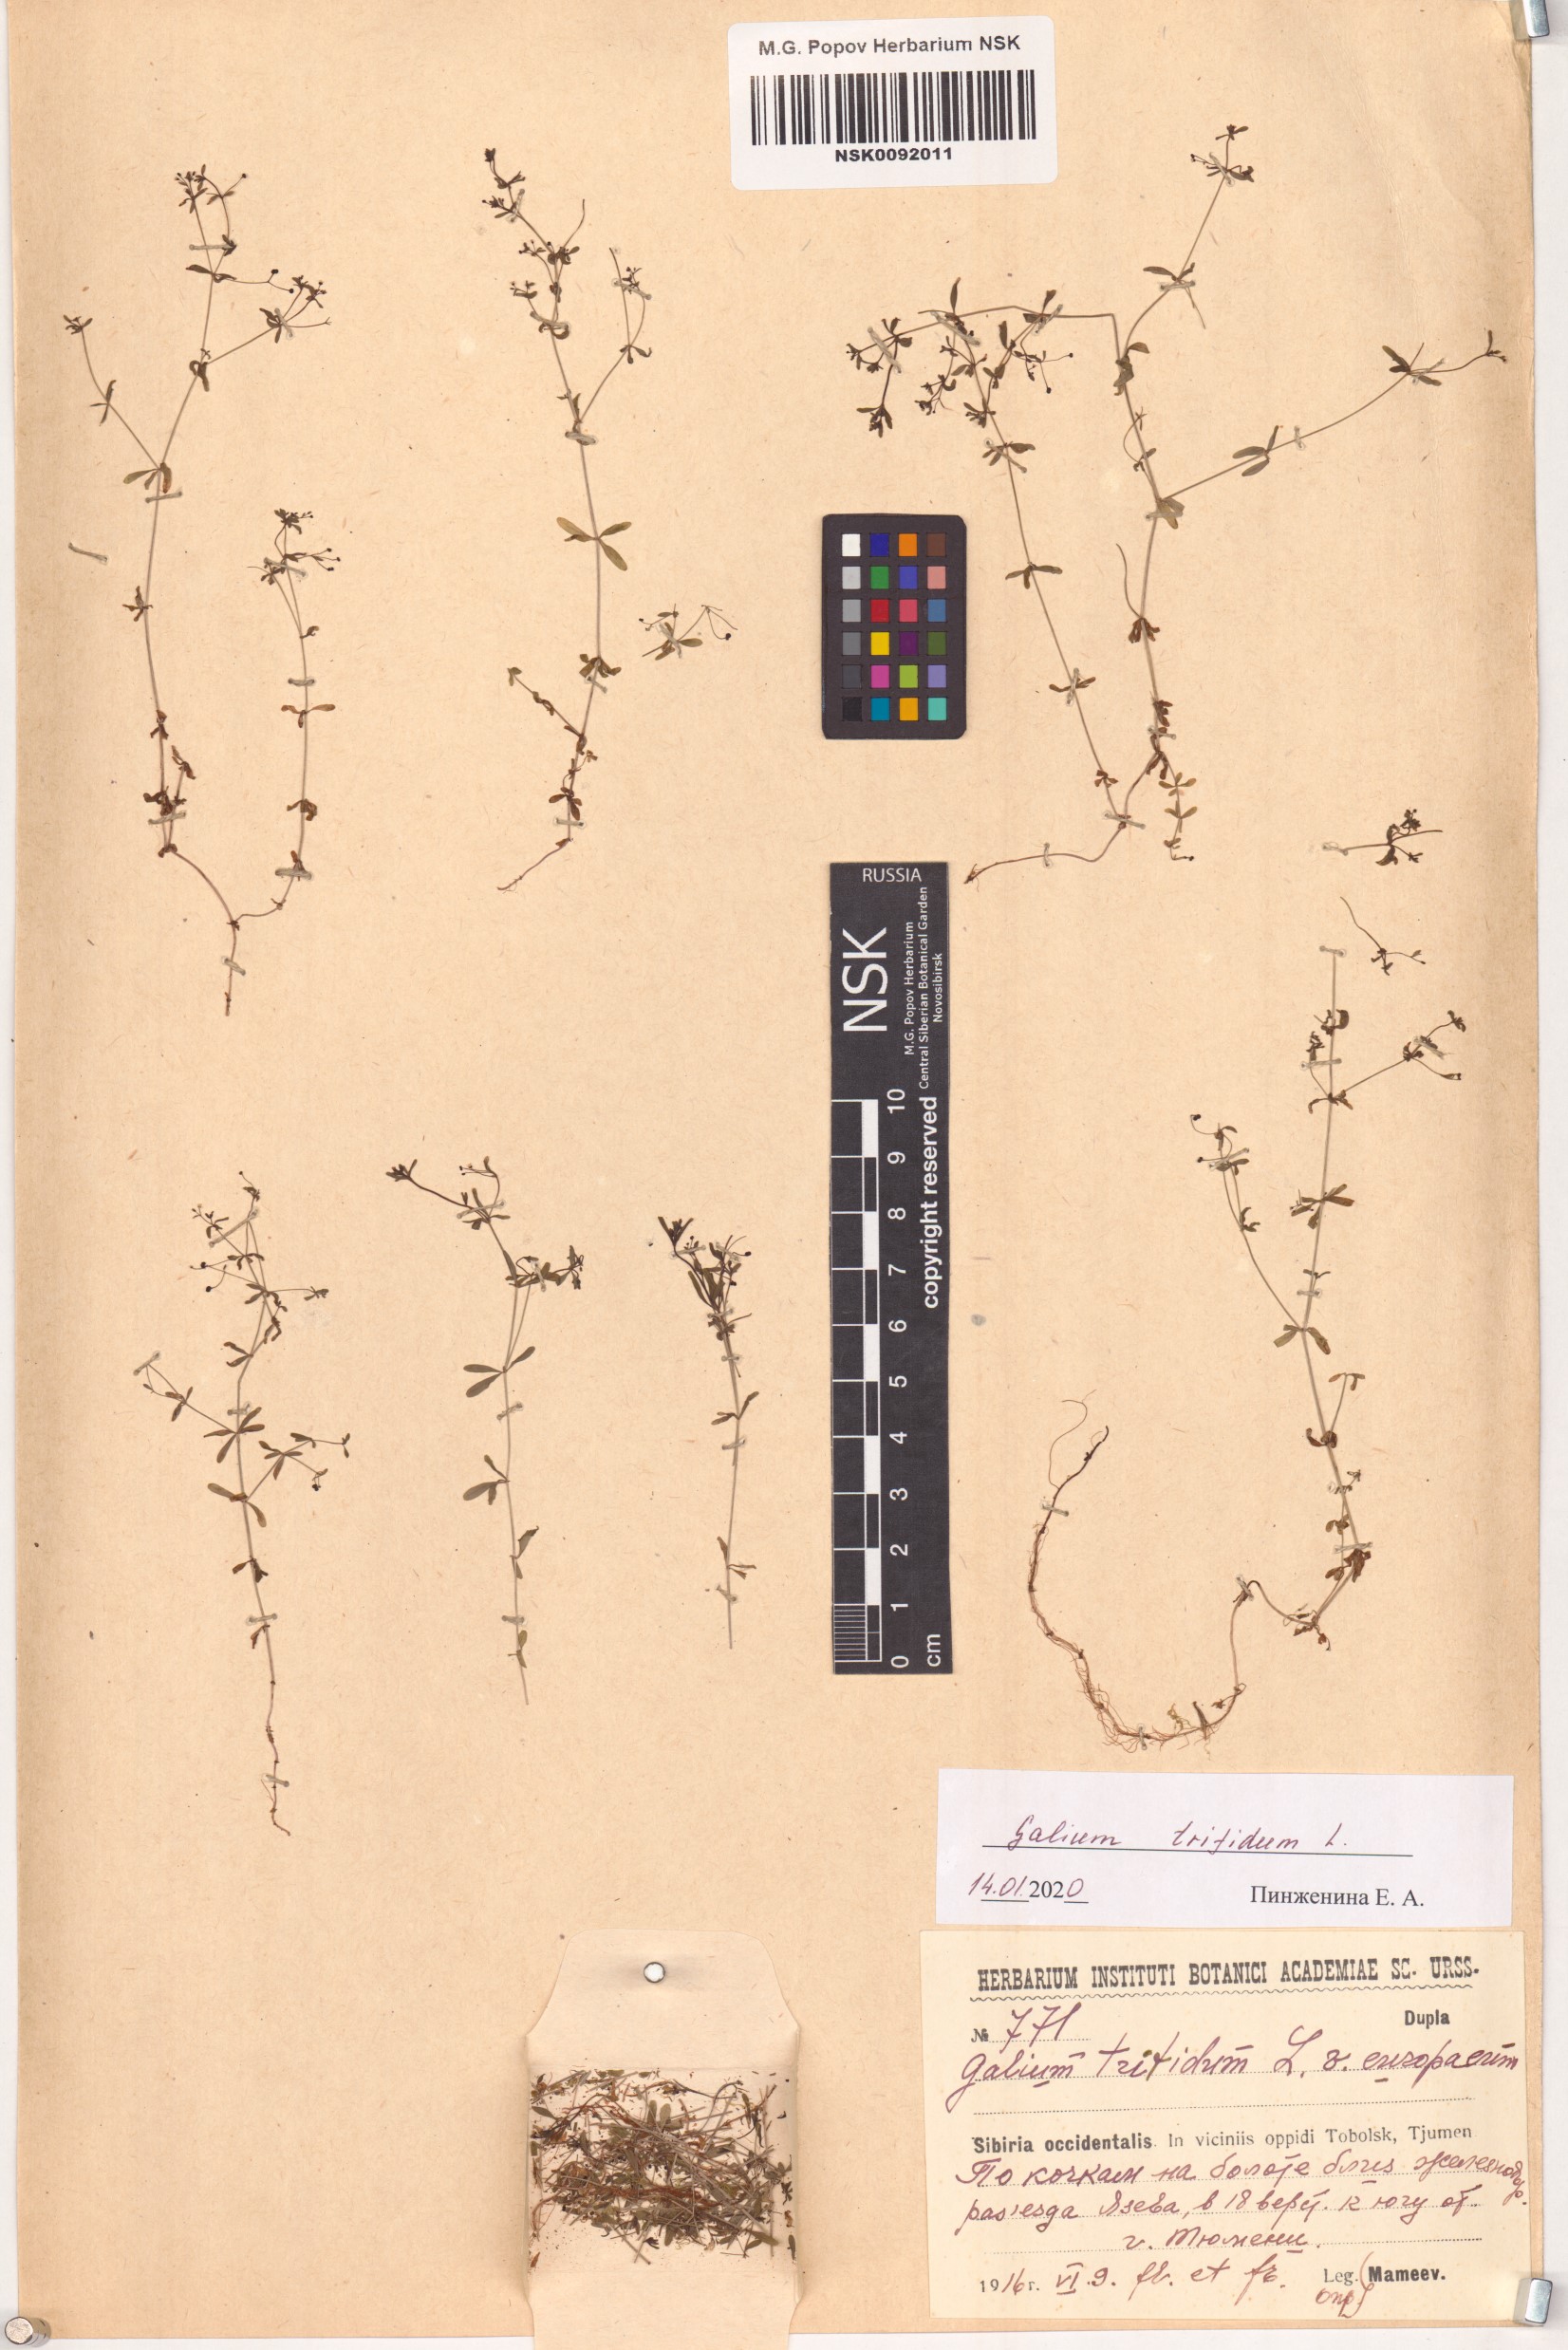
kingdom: Plantae
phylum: Tracheophyta
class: Magnoliopsida
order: Gentianales
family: Rubiaceae
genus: Galium
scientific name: Galium trifidum
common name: Small bedstraw
